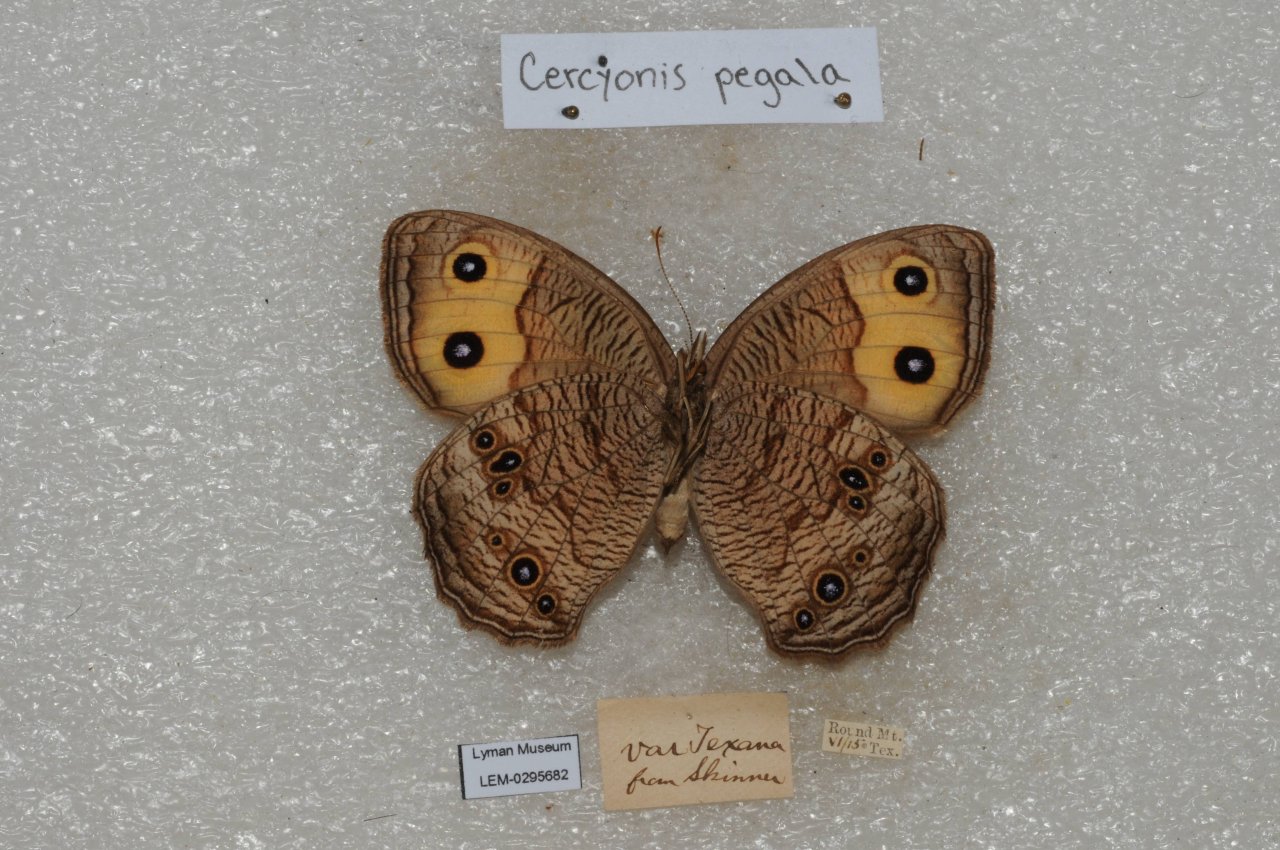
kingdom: Animalia
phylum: Arthropoda
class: Insecta
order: Lepidoptera
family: Nymphalidae
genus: Cercyonis
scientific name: Cercyonis pegala
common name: Common Wood-Nymph
